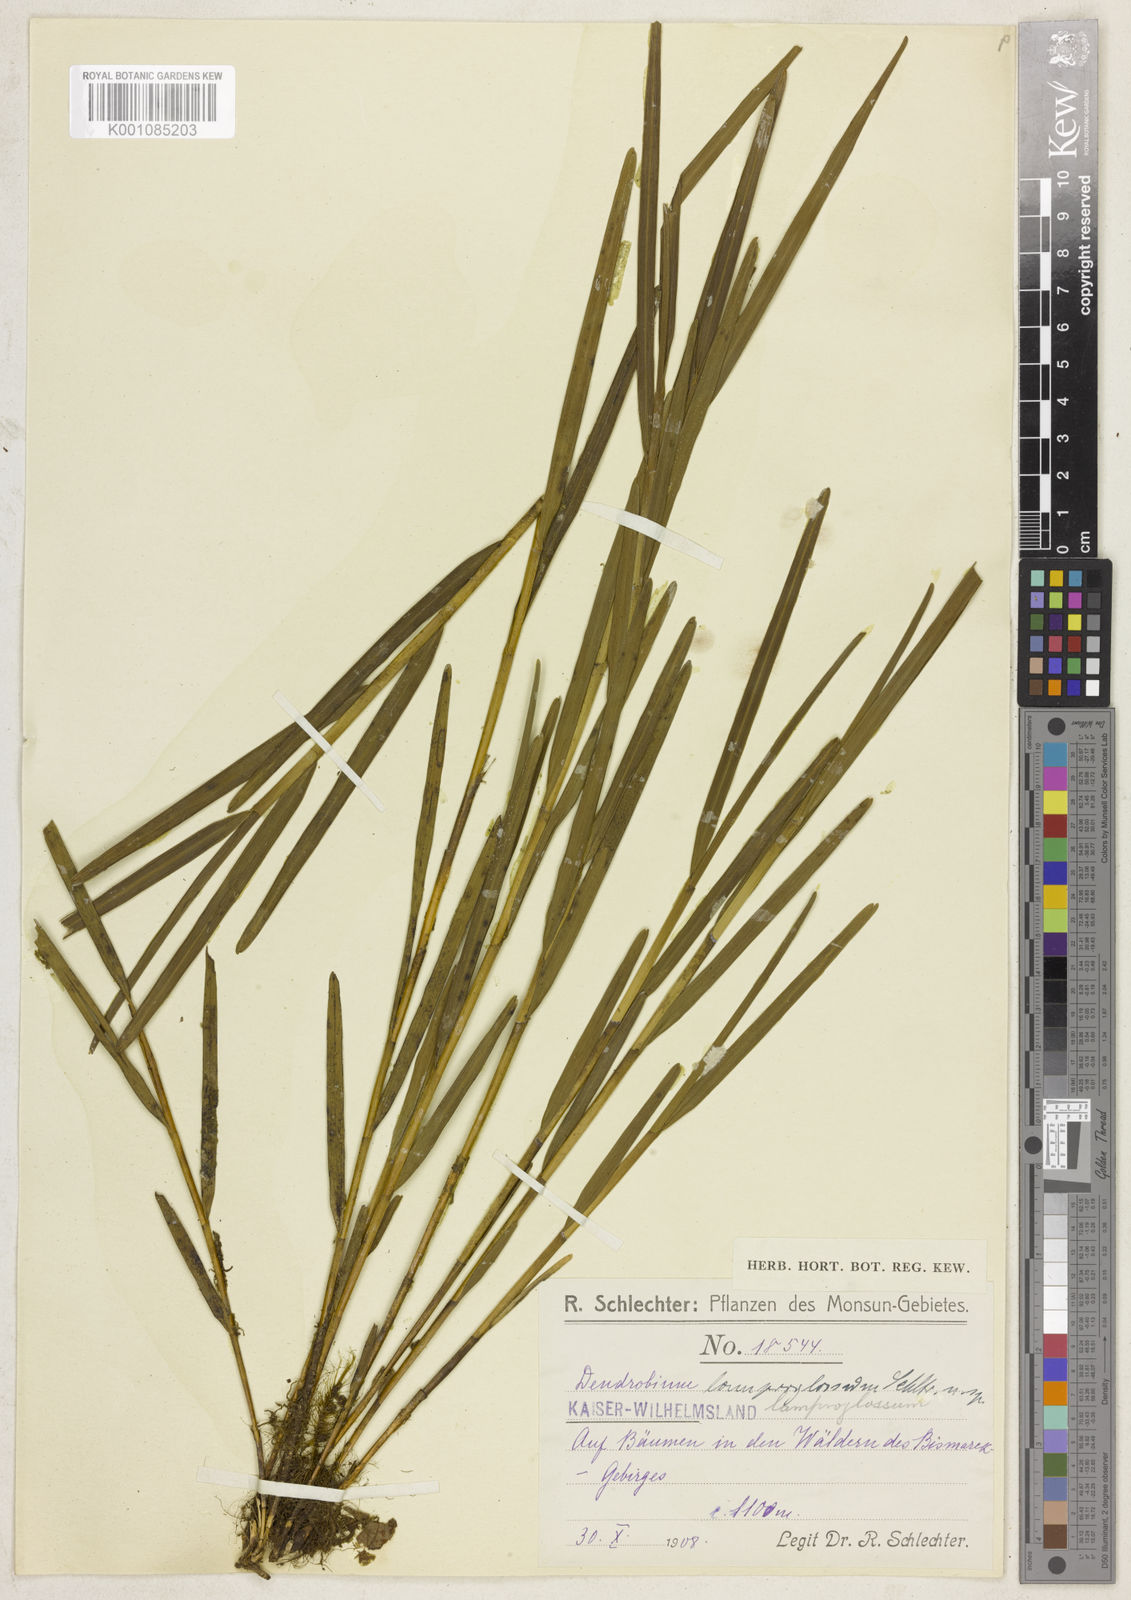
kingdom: Plantae
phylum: Tracheophyta
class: Liliopsida
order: Asparagales
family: Orchidaceae
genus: Dendrobium
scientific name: Dendrobium procerum
